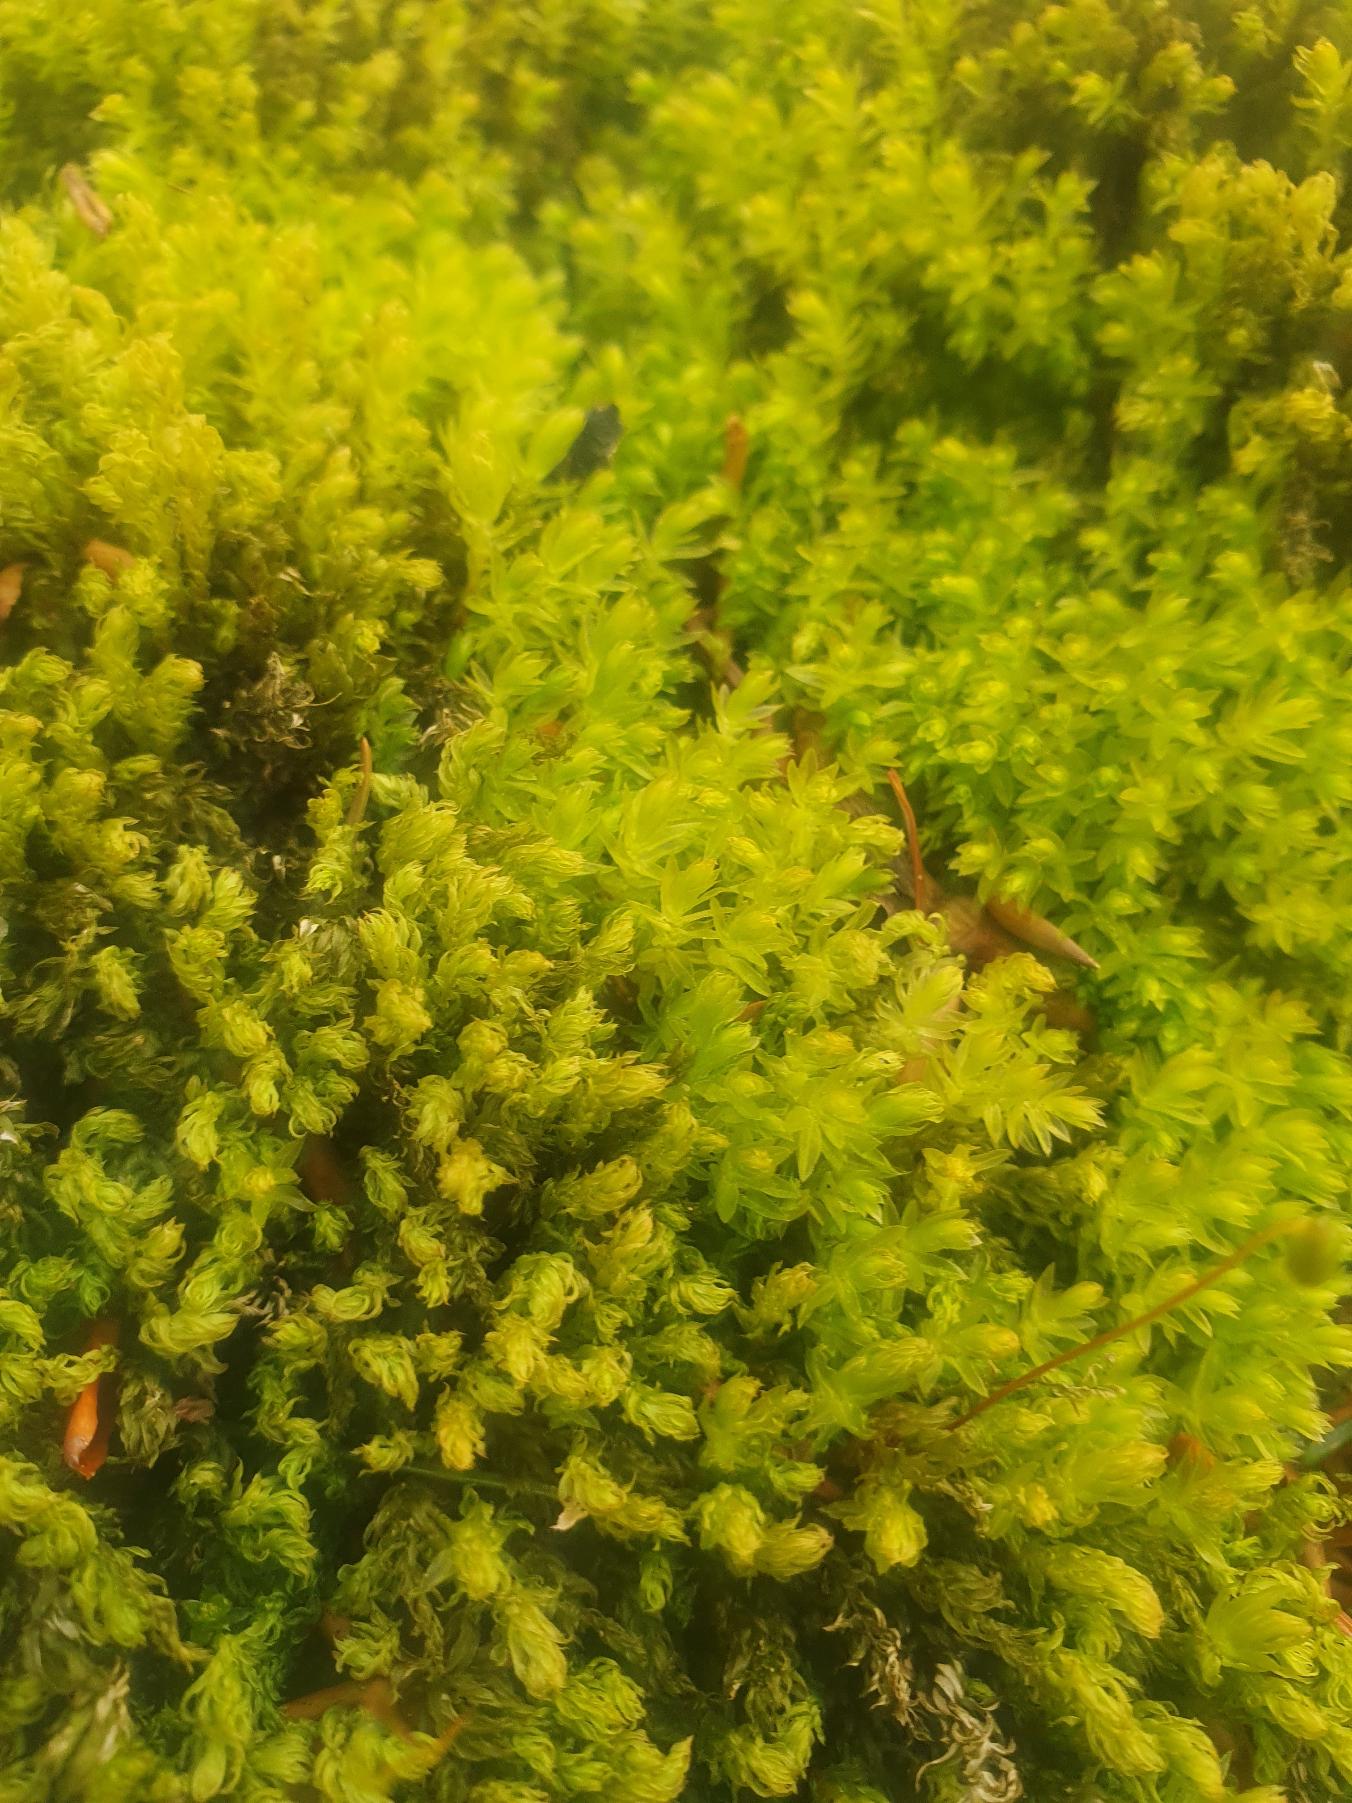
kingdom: Plantae
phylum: Bryophyta
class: Bryopsida
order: Bryales
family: Mniaceae
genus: Mnium
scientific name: Mnium hornum
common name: Brunfiltet stjernemos
